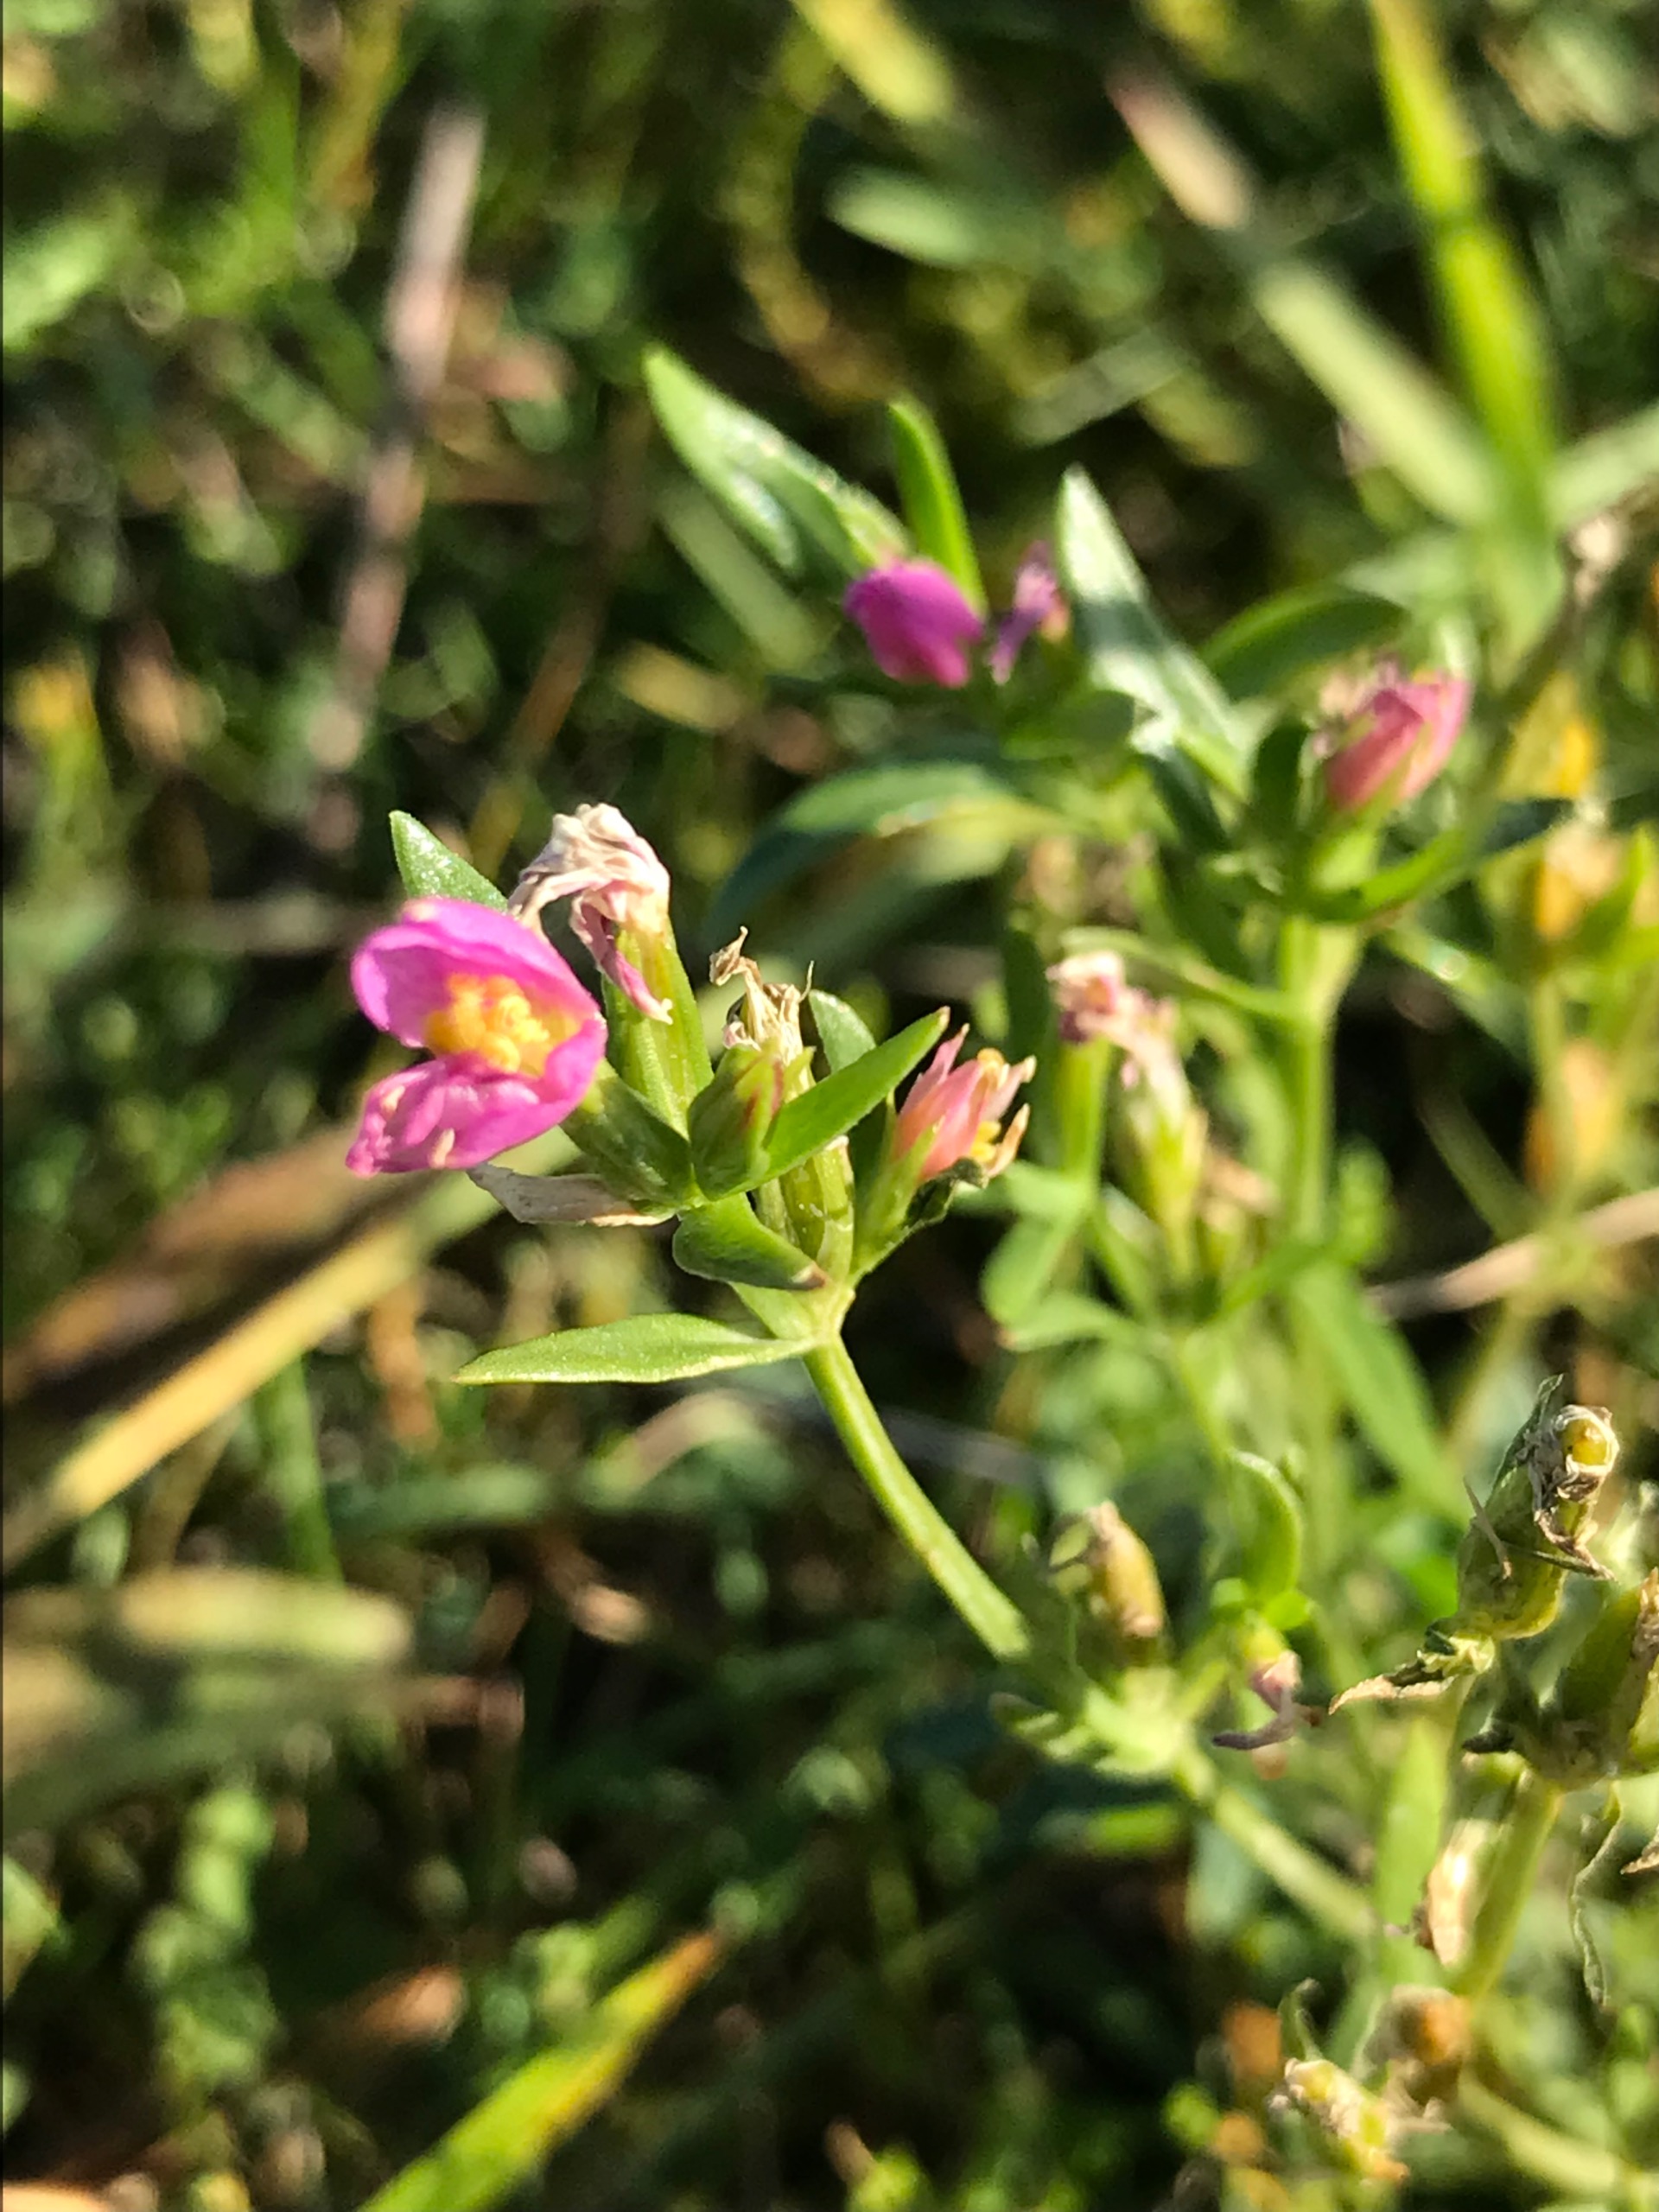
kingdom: Plantae
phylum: Tracheophyta
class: Magnoliopsida
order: Gentianales
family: Gentianaceae
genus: Centaurium
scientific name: Centaurium littorale
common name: Strand-tusindgylden
